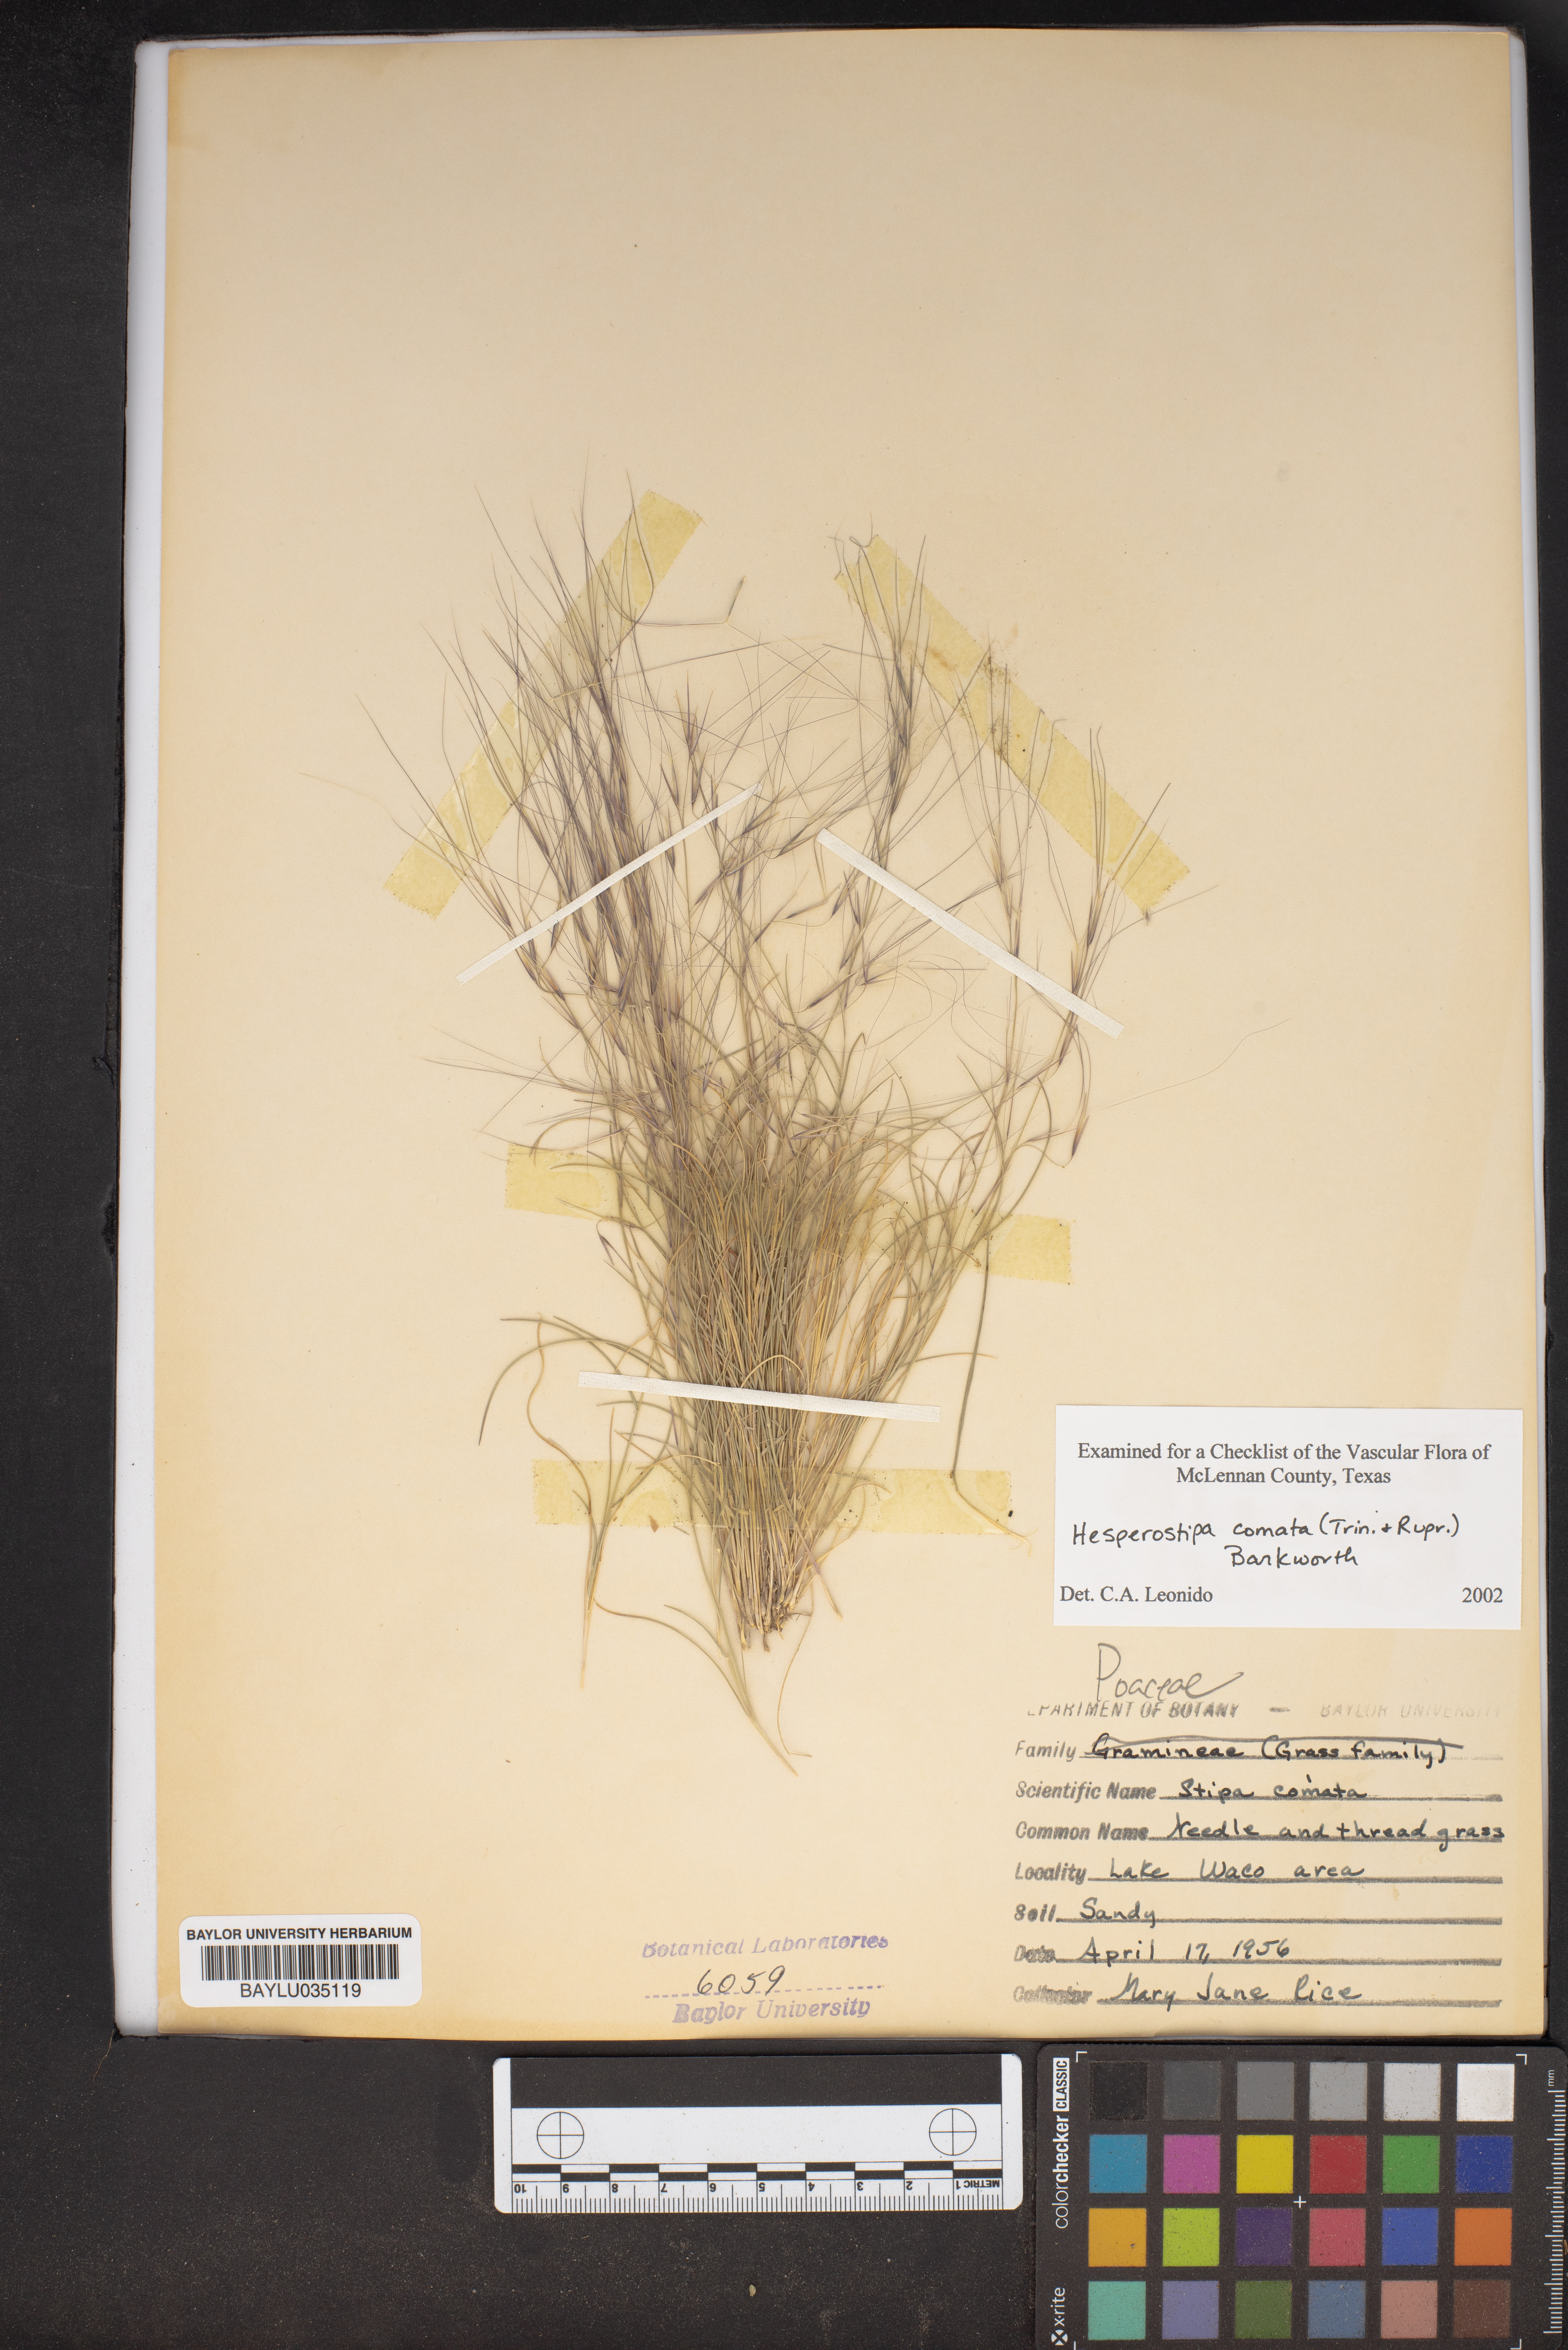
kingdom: Plantae
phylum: Tracheophyta
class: Liliopsida
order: Poales
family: Poaceae
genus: Hesperostipa
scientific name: Hesperostipa comata
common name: Needle-and-thread grass
